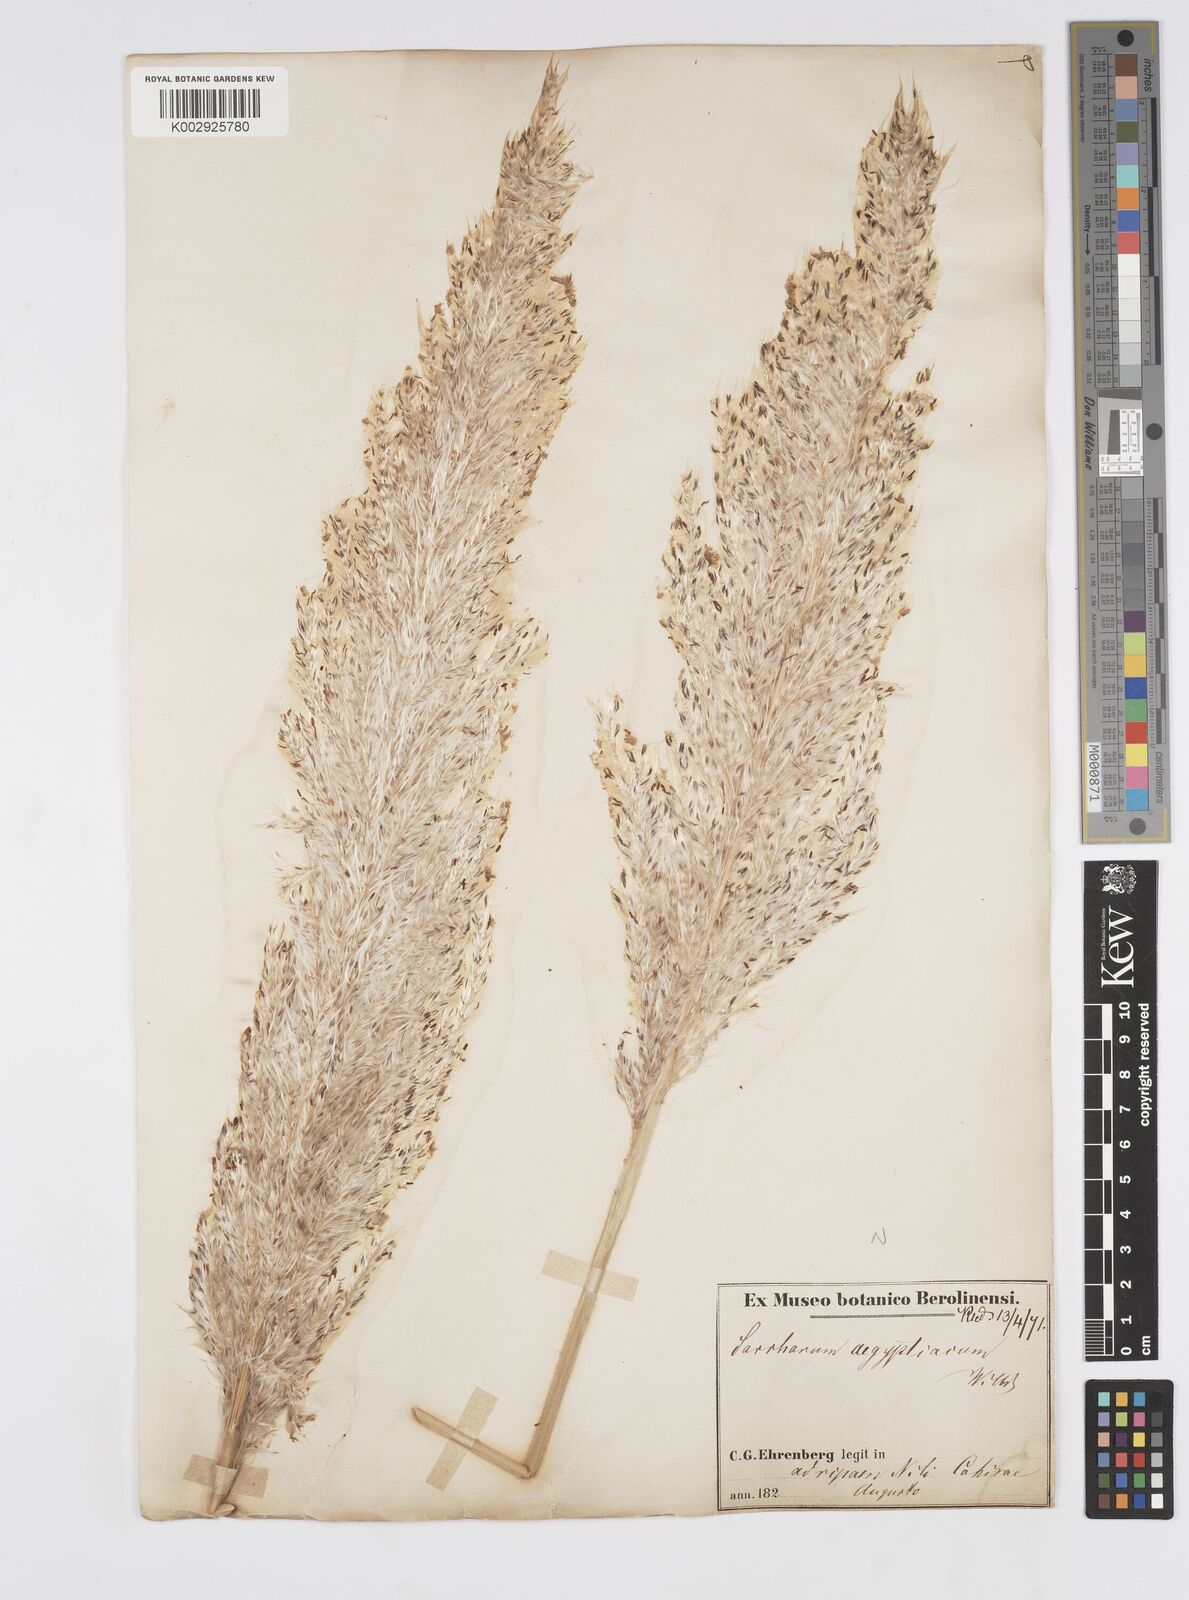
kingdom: Plantae
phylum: Tracheophyta
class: Liliopsida
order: Poales
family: Poaceae
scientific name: Poaceae
